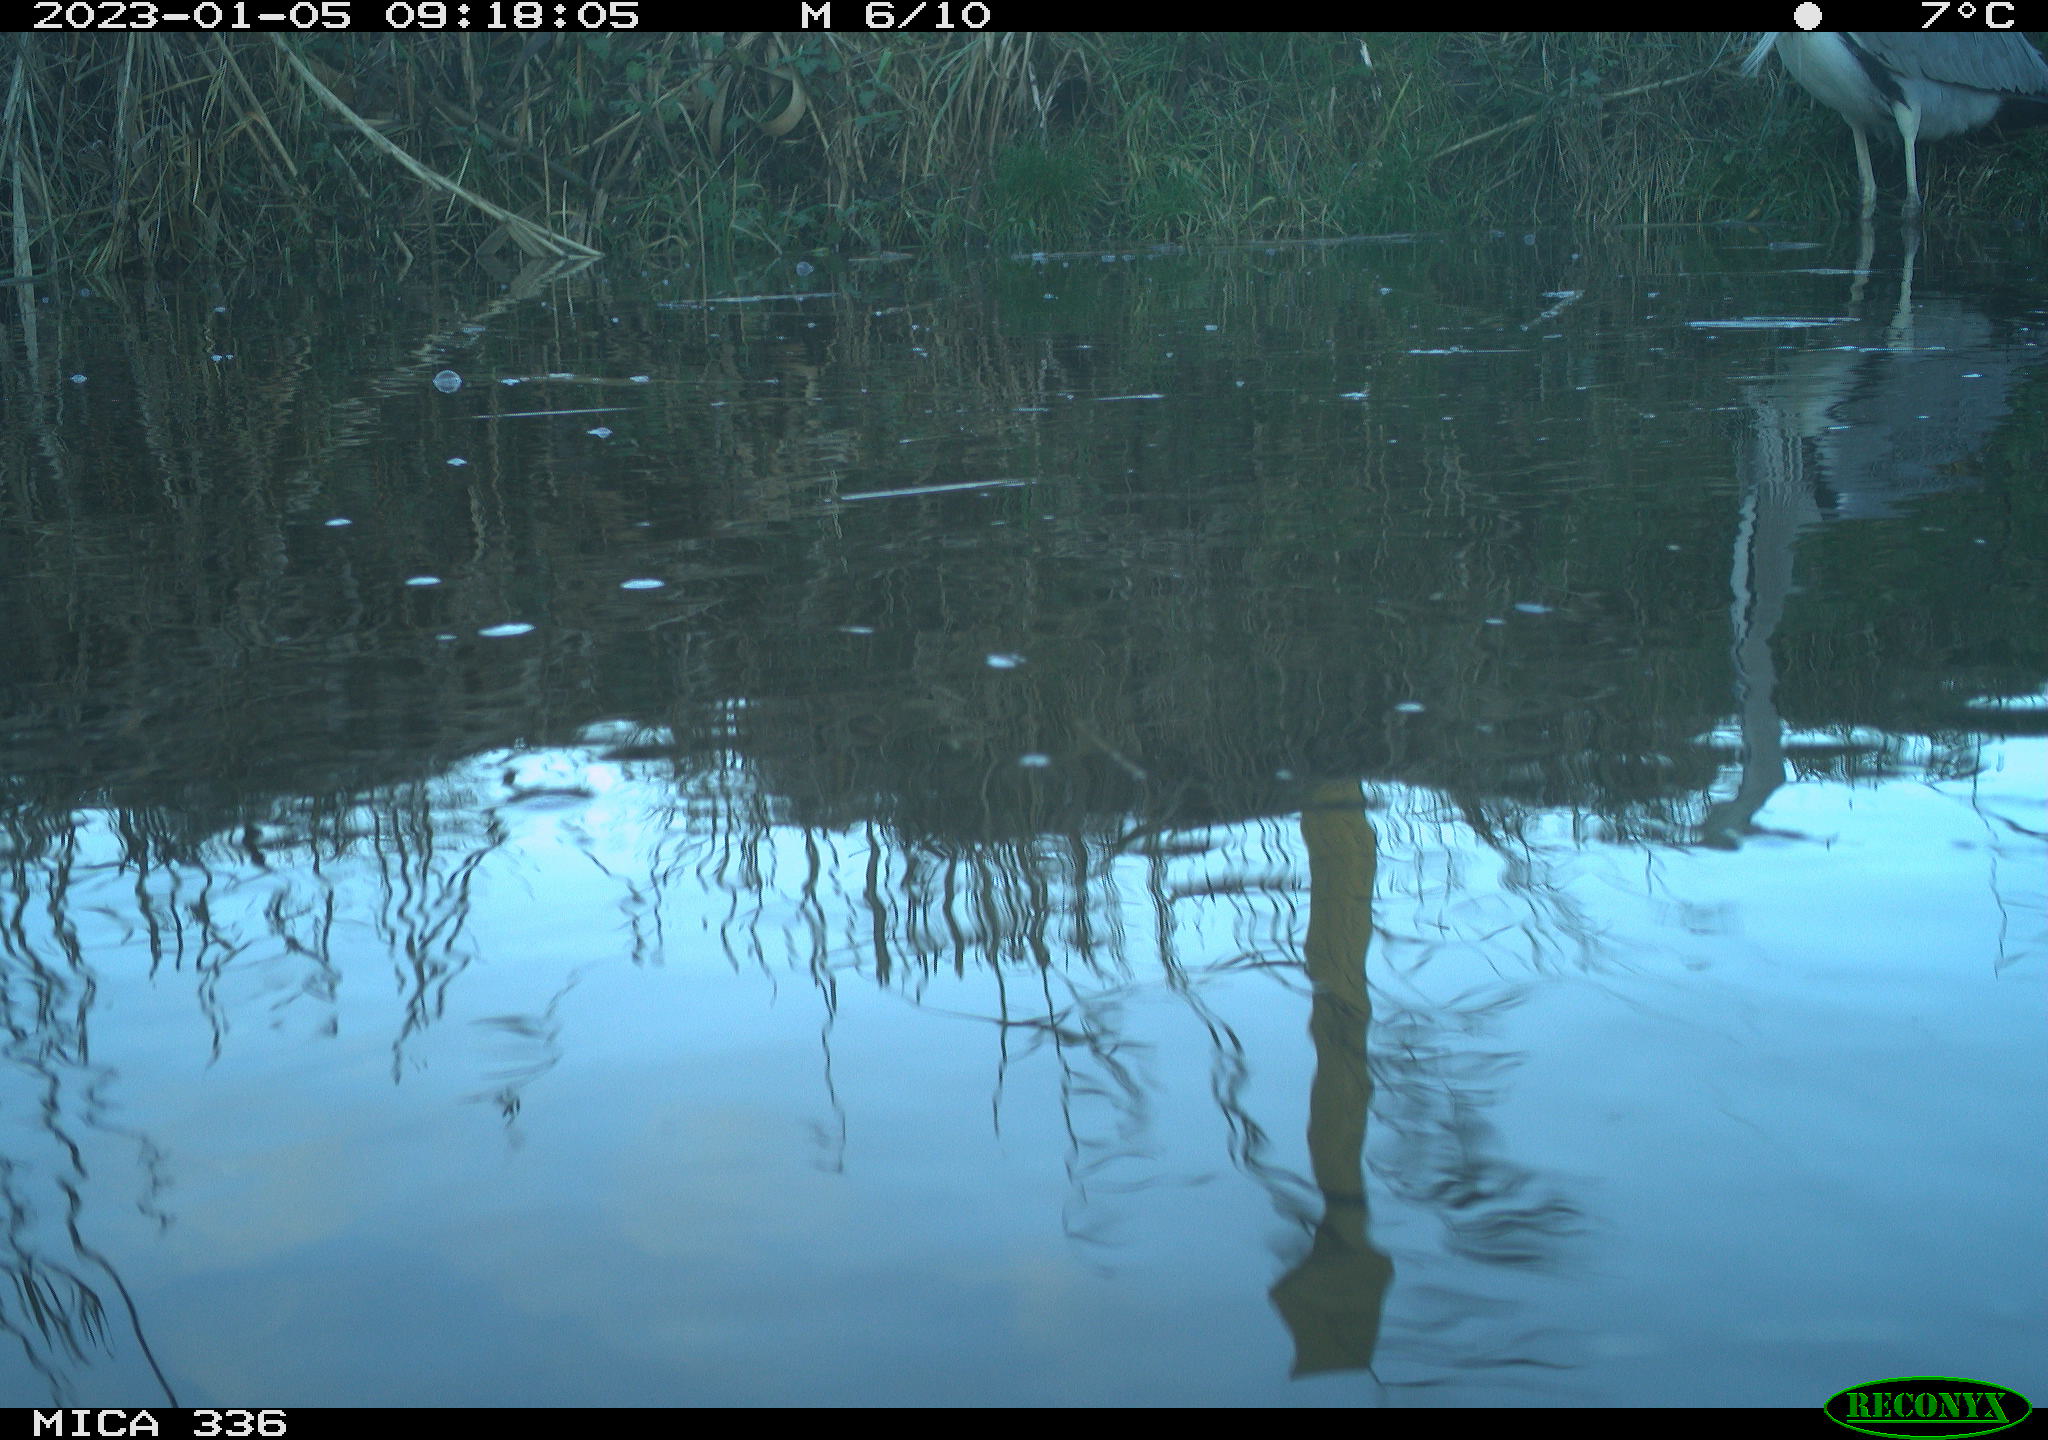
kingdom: Animalia
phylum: Chordata
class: Aves
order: Pelecaniformes
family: Ardeidae
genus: Ardea
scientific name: Ardea cinerea
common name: Grey heron
